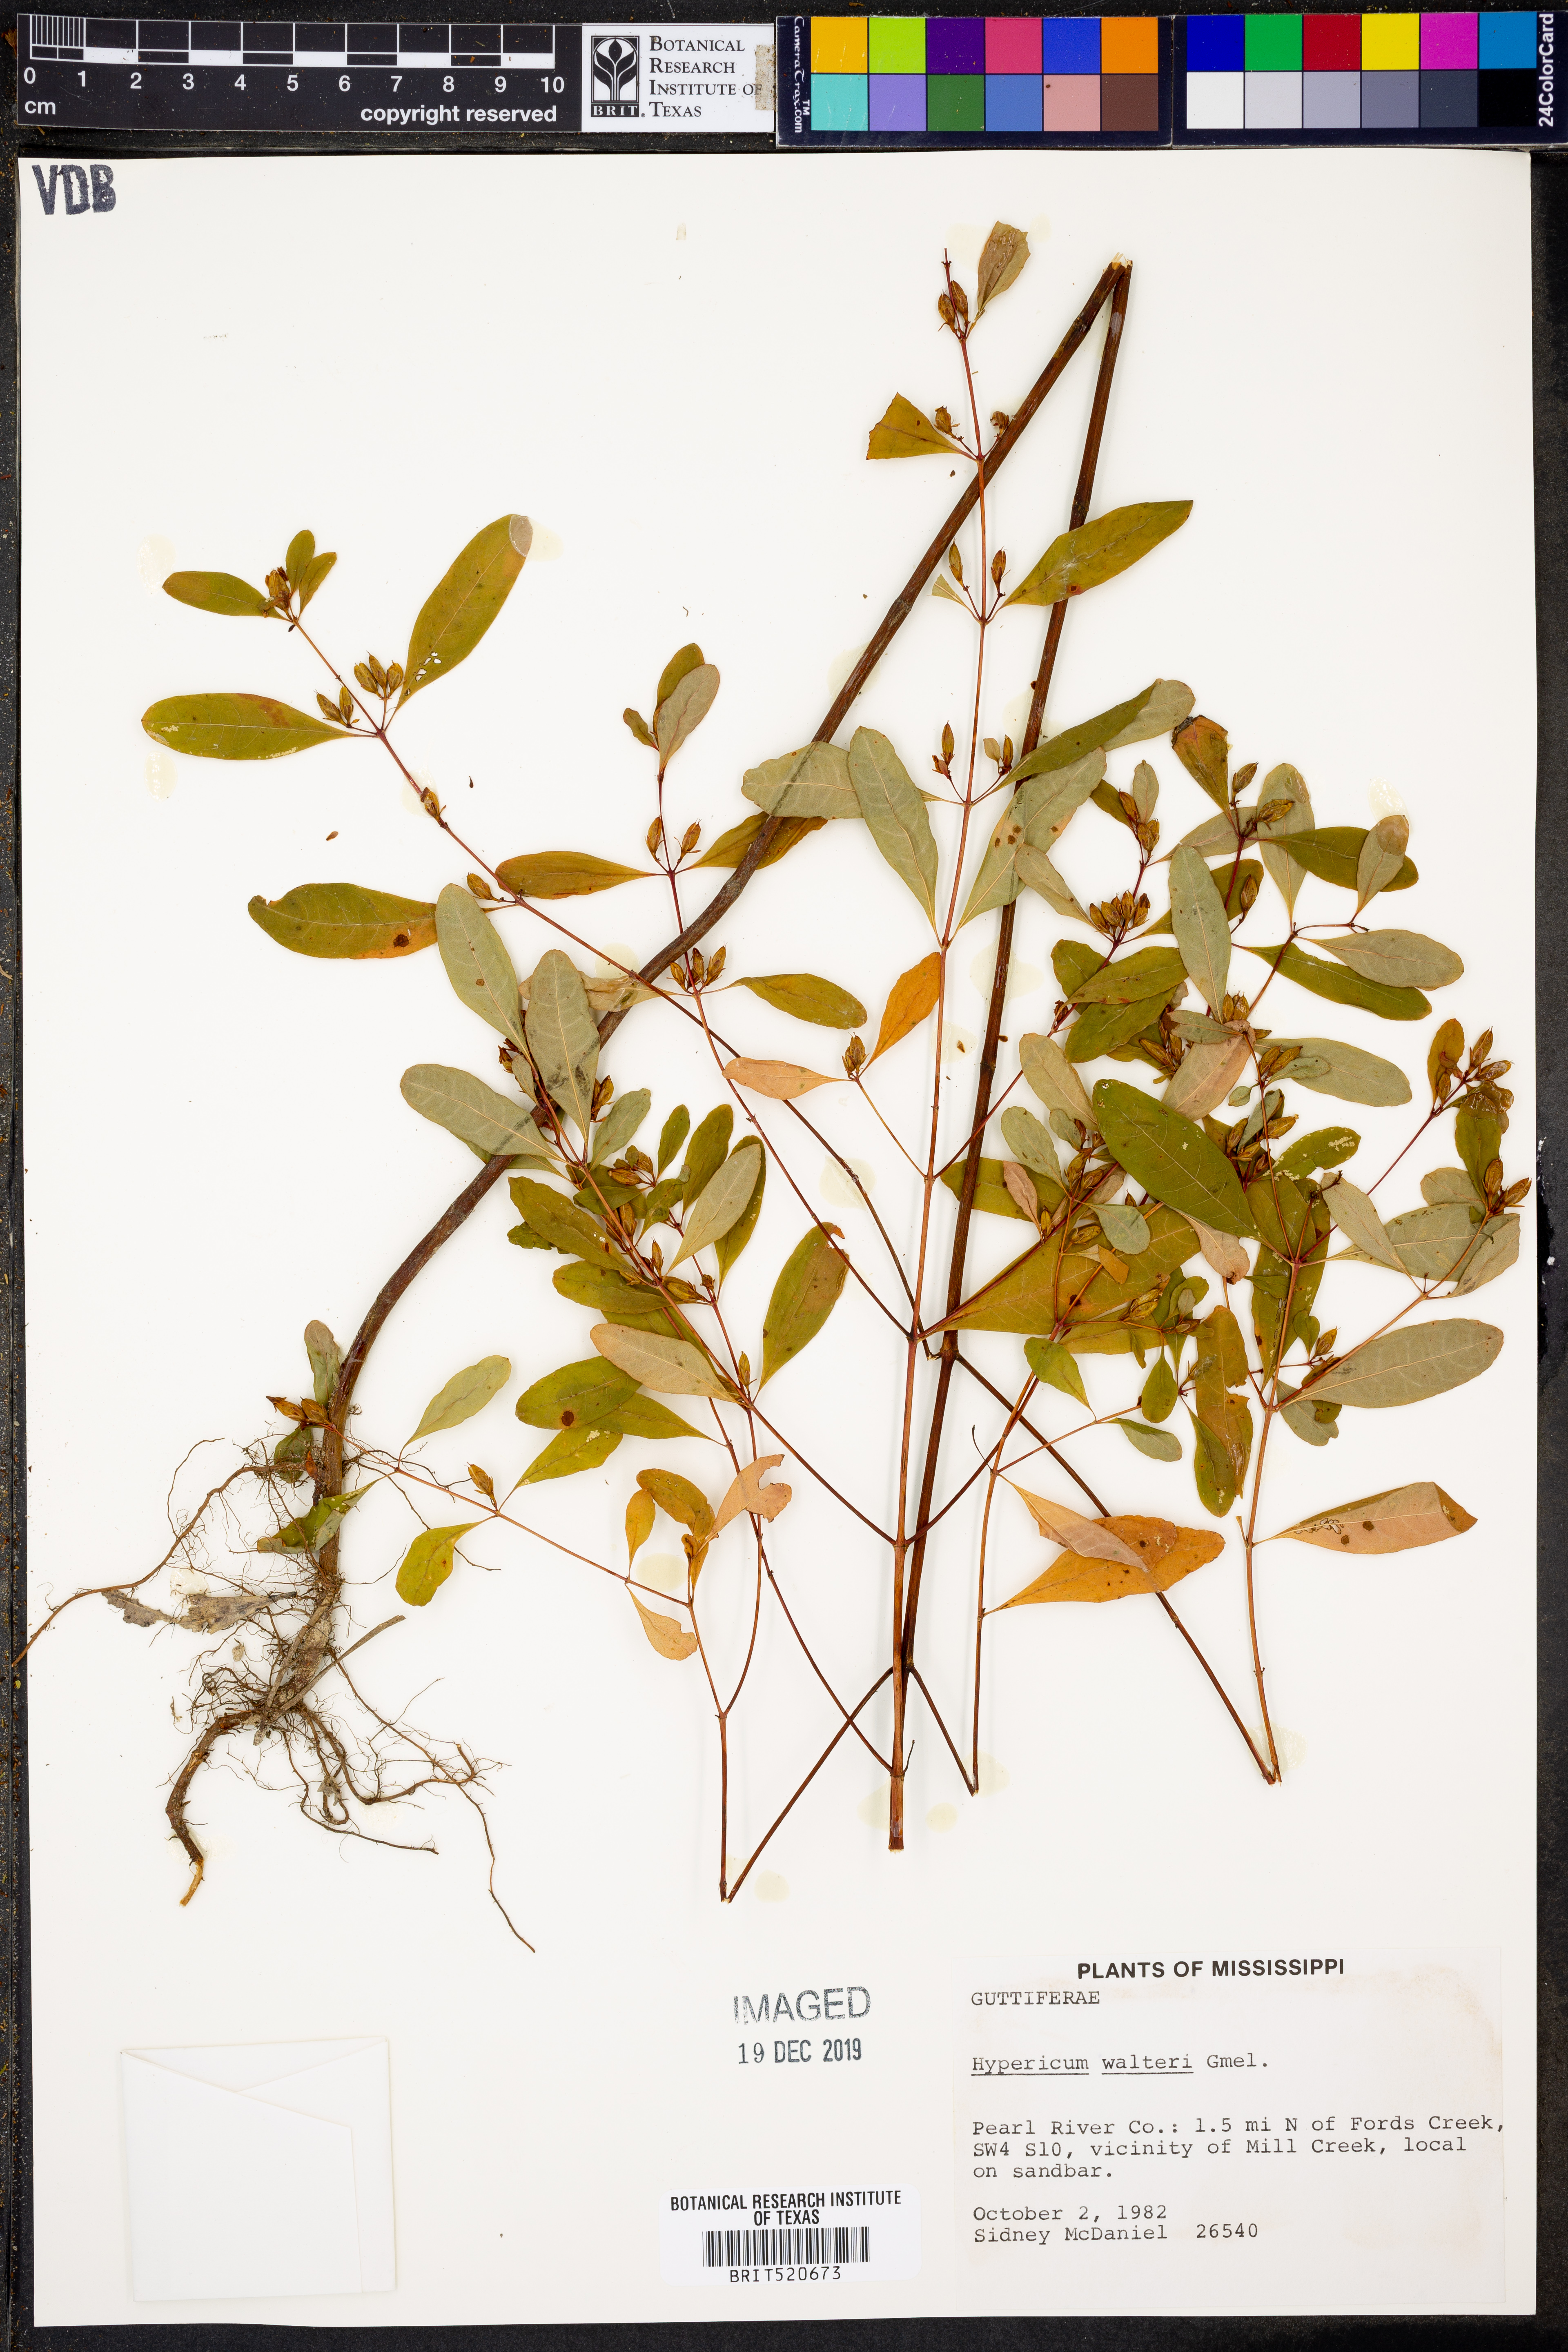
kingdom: Plantae
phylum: Tracheophyta
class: Magnoliopsida
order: Malpighiales
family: Hypericaceae
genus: Triadenum
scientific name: Triadenum walteri
